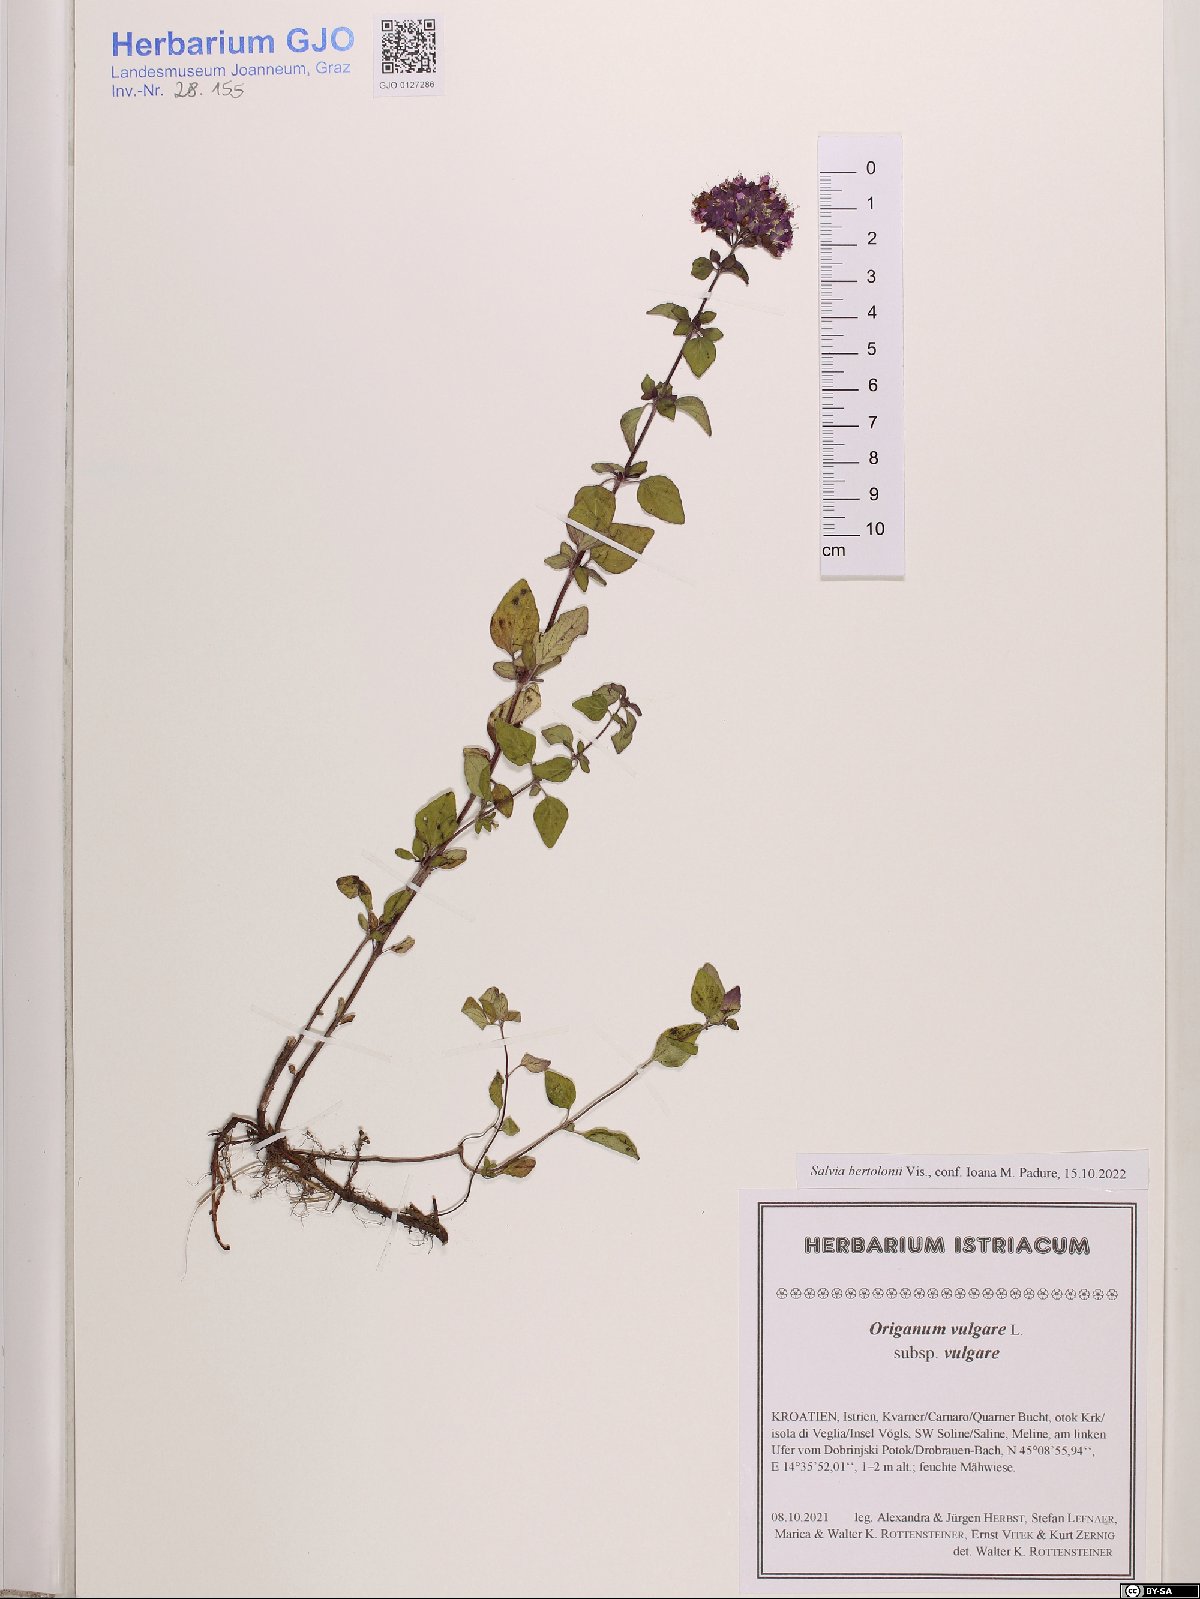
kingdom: Plantae
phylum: Tracheophyta
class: Magnoliopsida
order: Lamiales
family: Lamiaceae
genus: Origanum
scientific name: Origanum vulgare
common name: Wild marjoram
